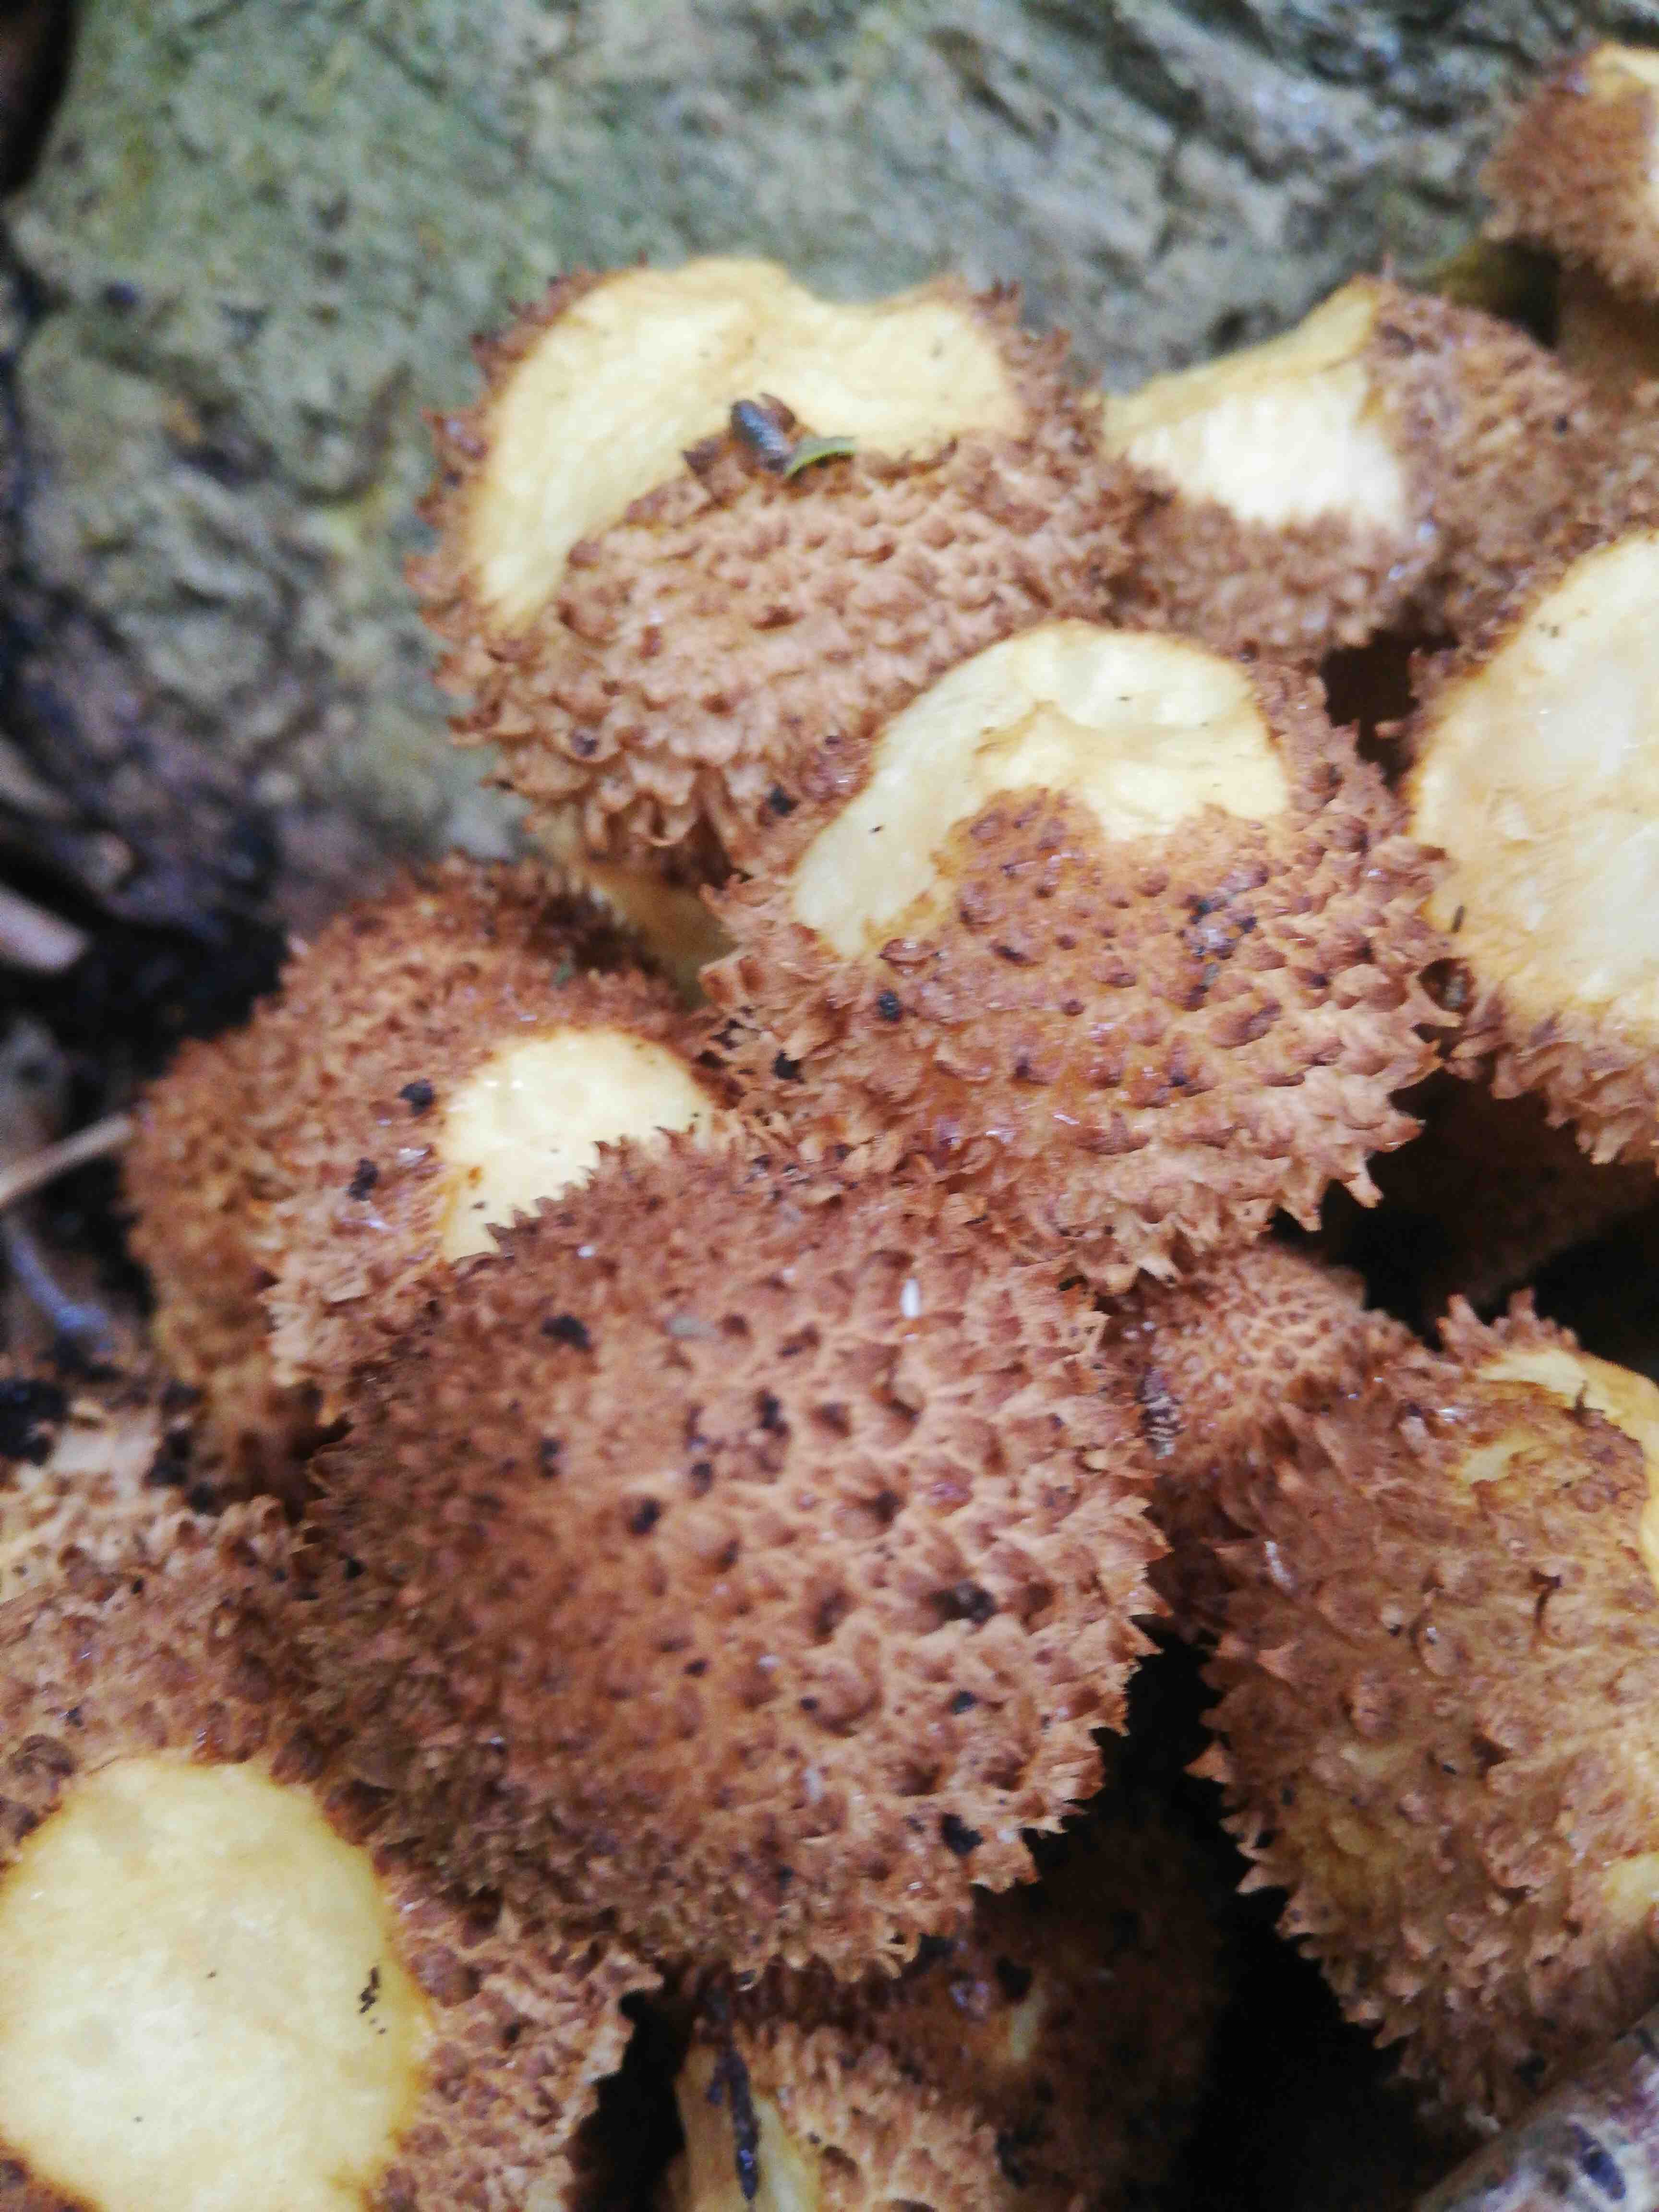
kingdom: Fungi
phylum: Basidiomycota
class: Agaricomycetes
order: Agaricales
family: Strophariaceae
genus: Pholiota
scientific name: Pholiota squarrosa
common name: krumskællet skælhat
